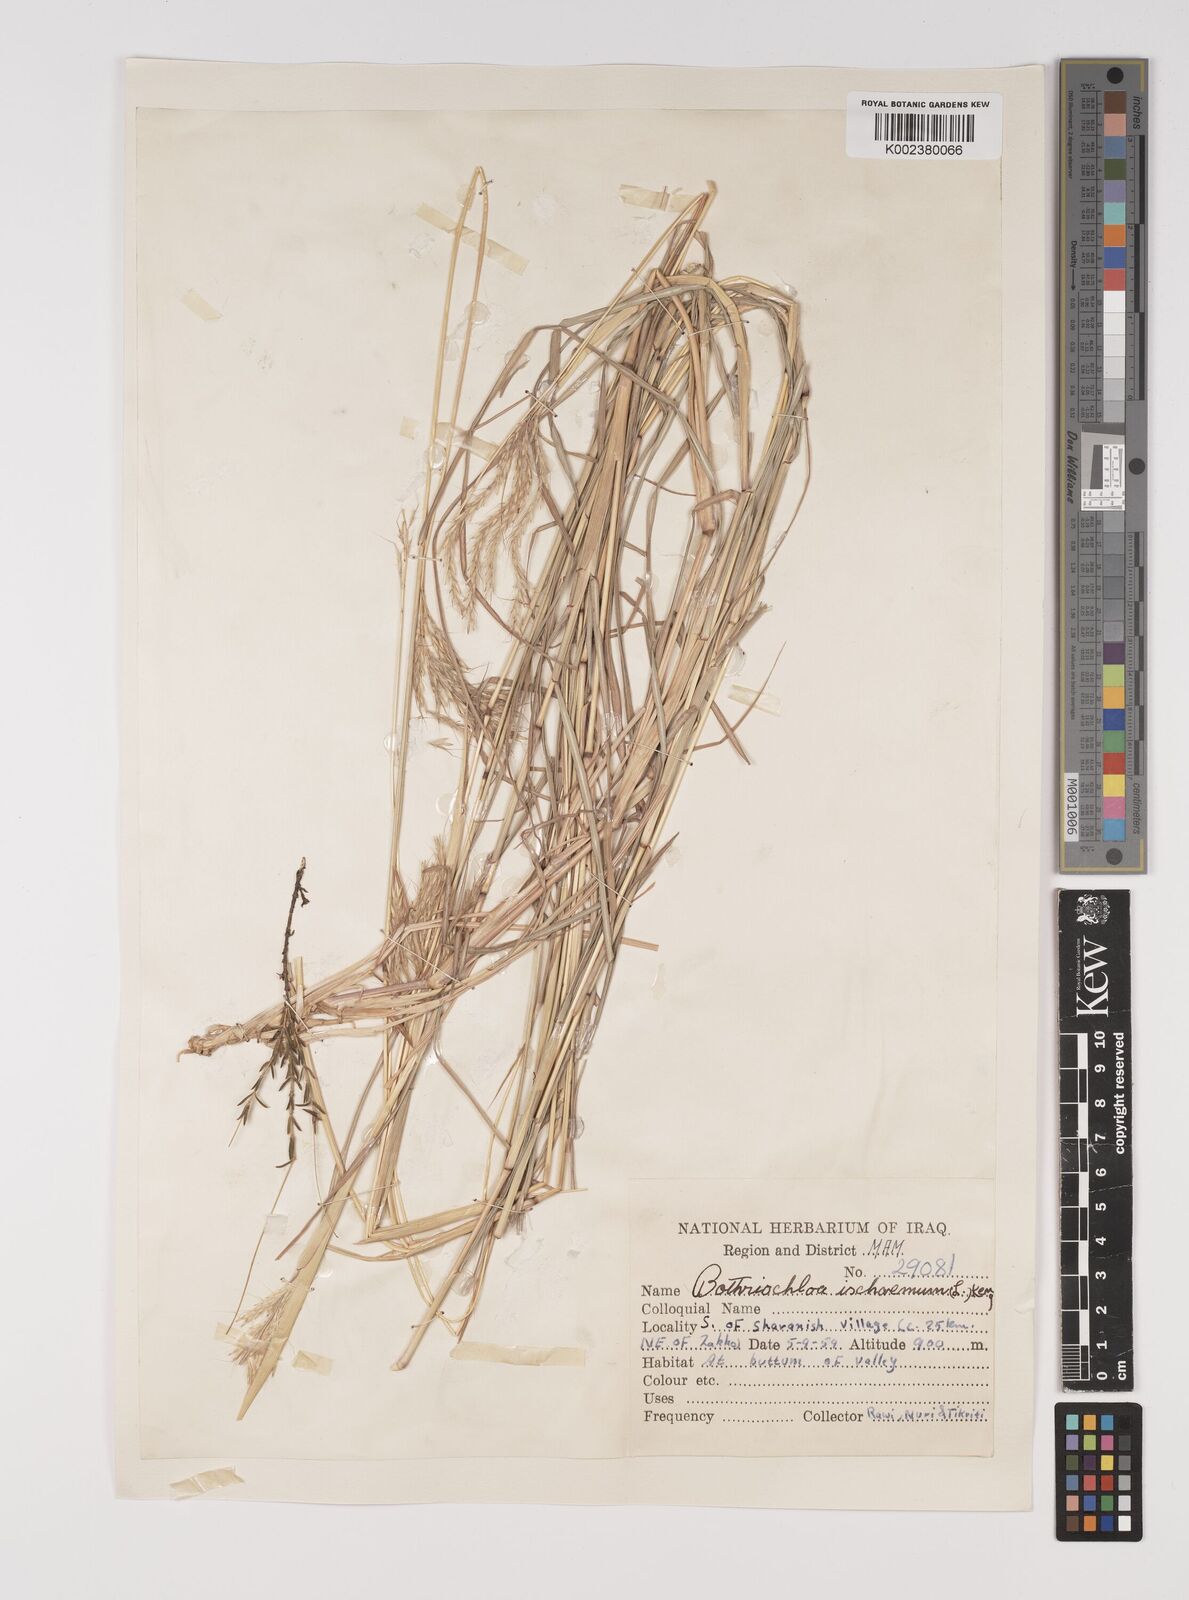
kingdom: Plantae
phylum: Tracheophyta
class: Liliopsida
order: Poales
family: Poaceae
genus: Bothriochloa
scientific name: Bothriochloa ischaemum
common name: Yellow bluestem
